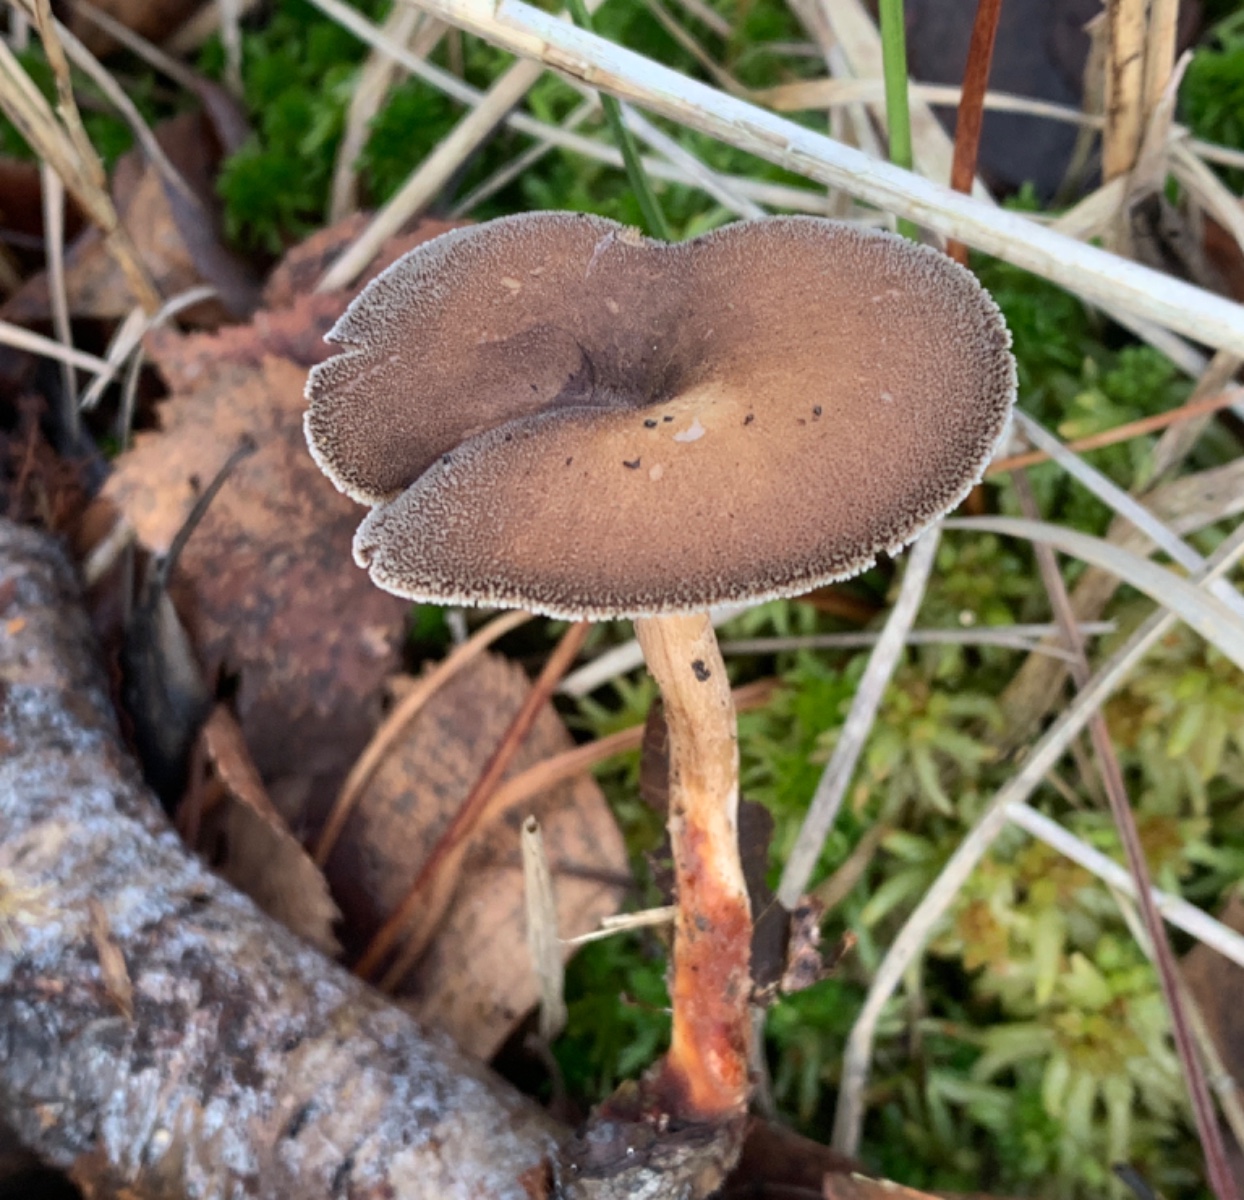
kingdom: Fungi
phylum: Basidiomycota
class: Agaricomycetes
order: Polyporales
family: Polyporaceae
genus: Lentinus
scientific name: Lentinus brumalis
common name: vinter-stilkporesvamp
